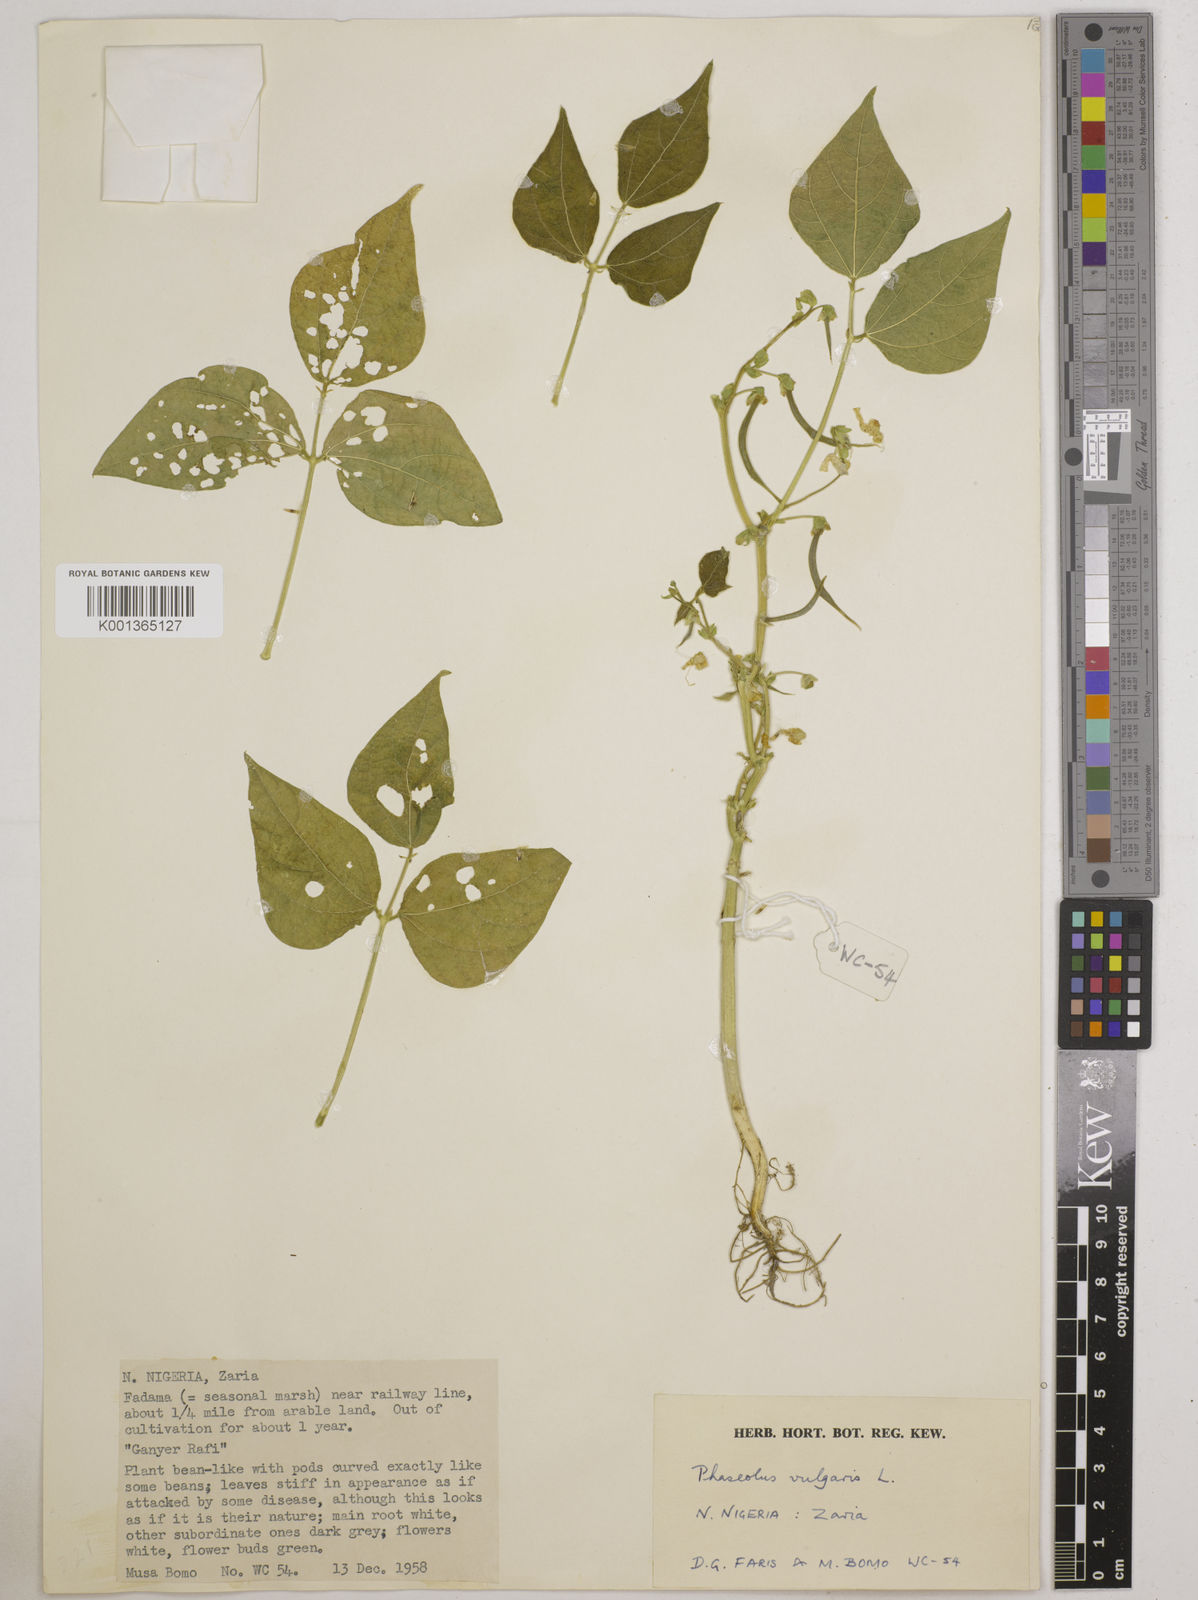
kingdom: Plantae
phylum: Tracheophyta
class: Magnoliopsida
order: Fabales
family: Fabaceae
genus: Phaseolus
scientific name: Phaseolus vulgaris
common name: Bean
